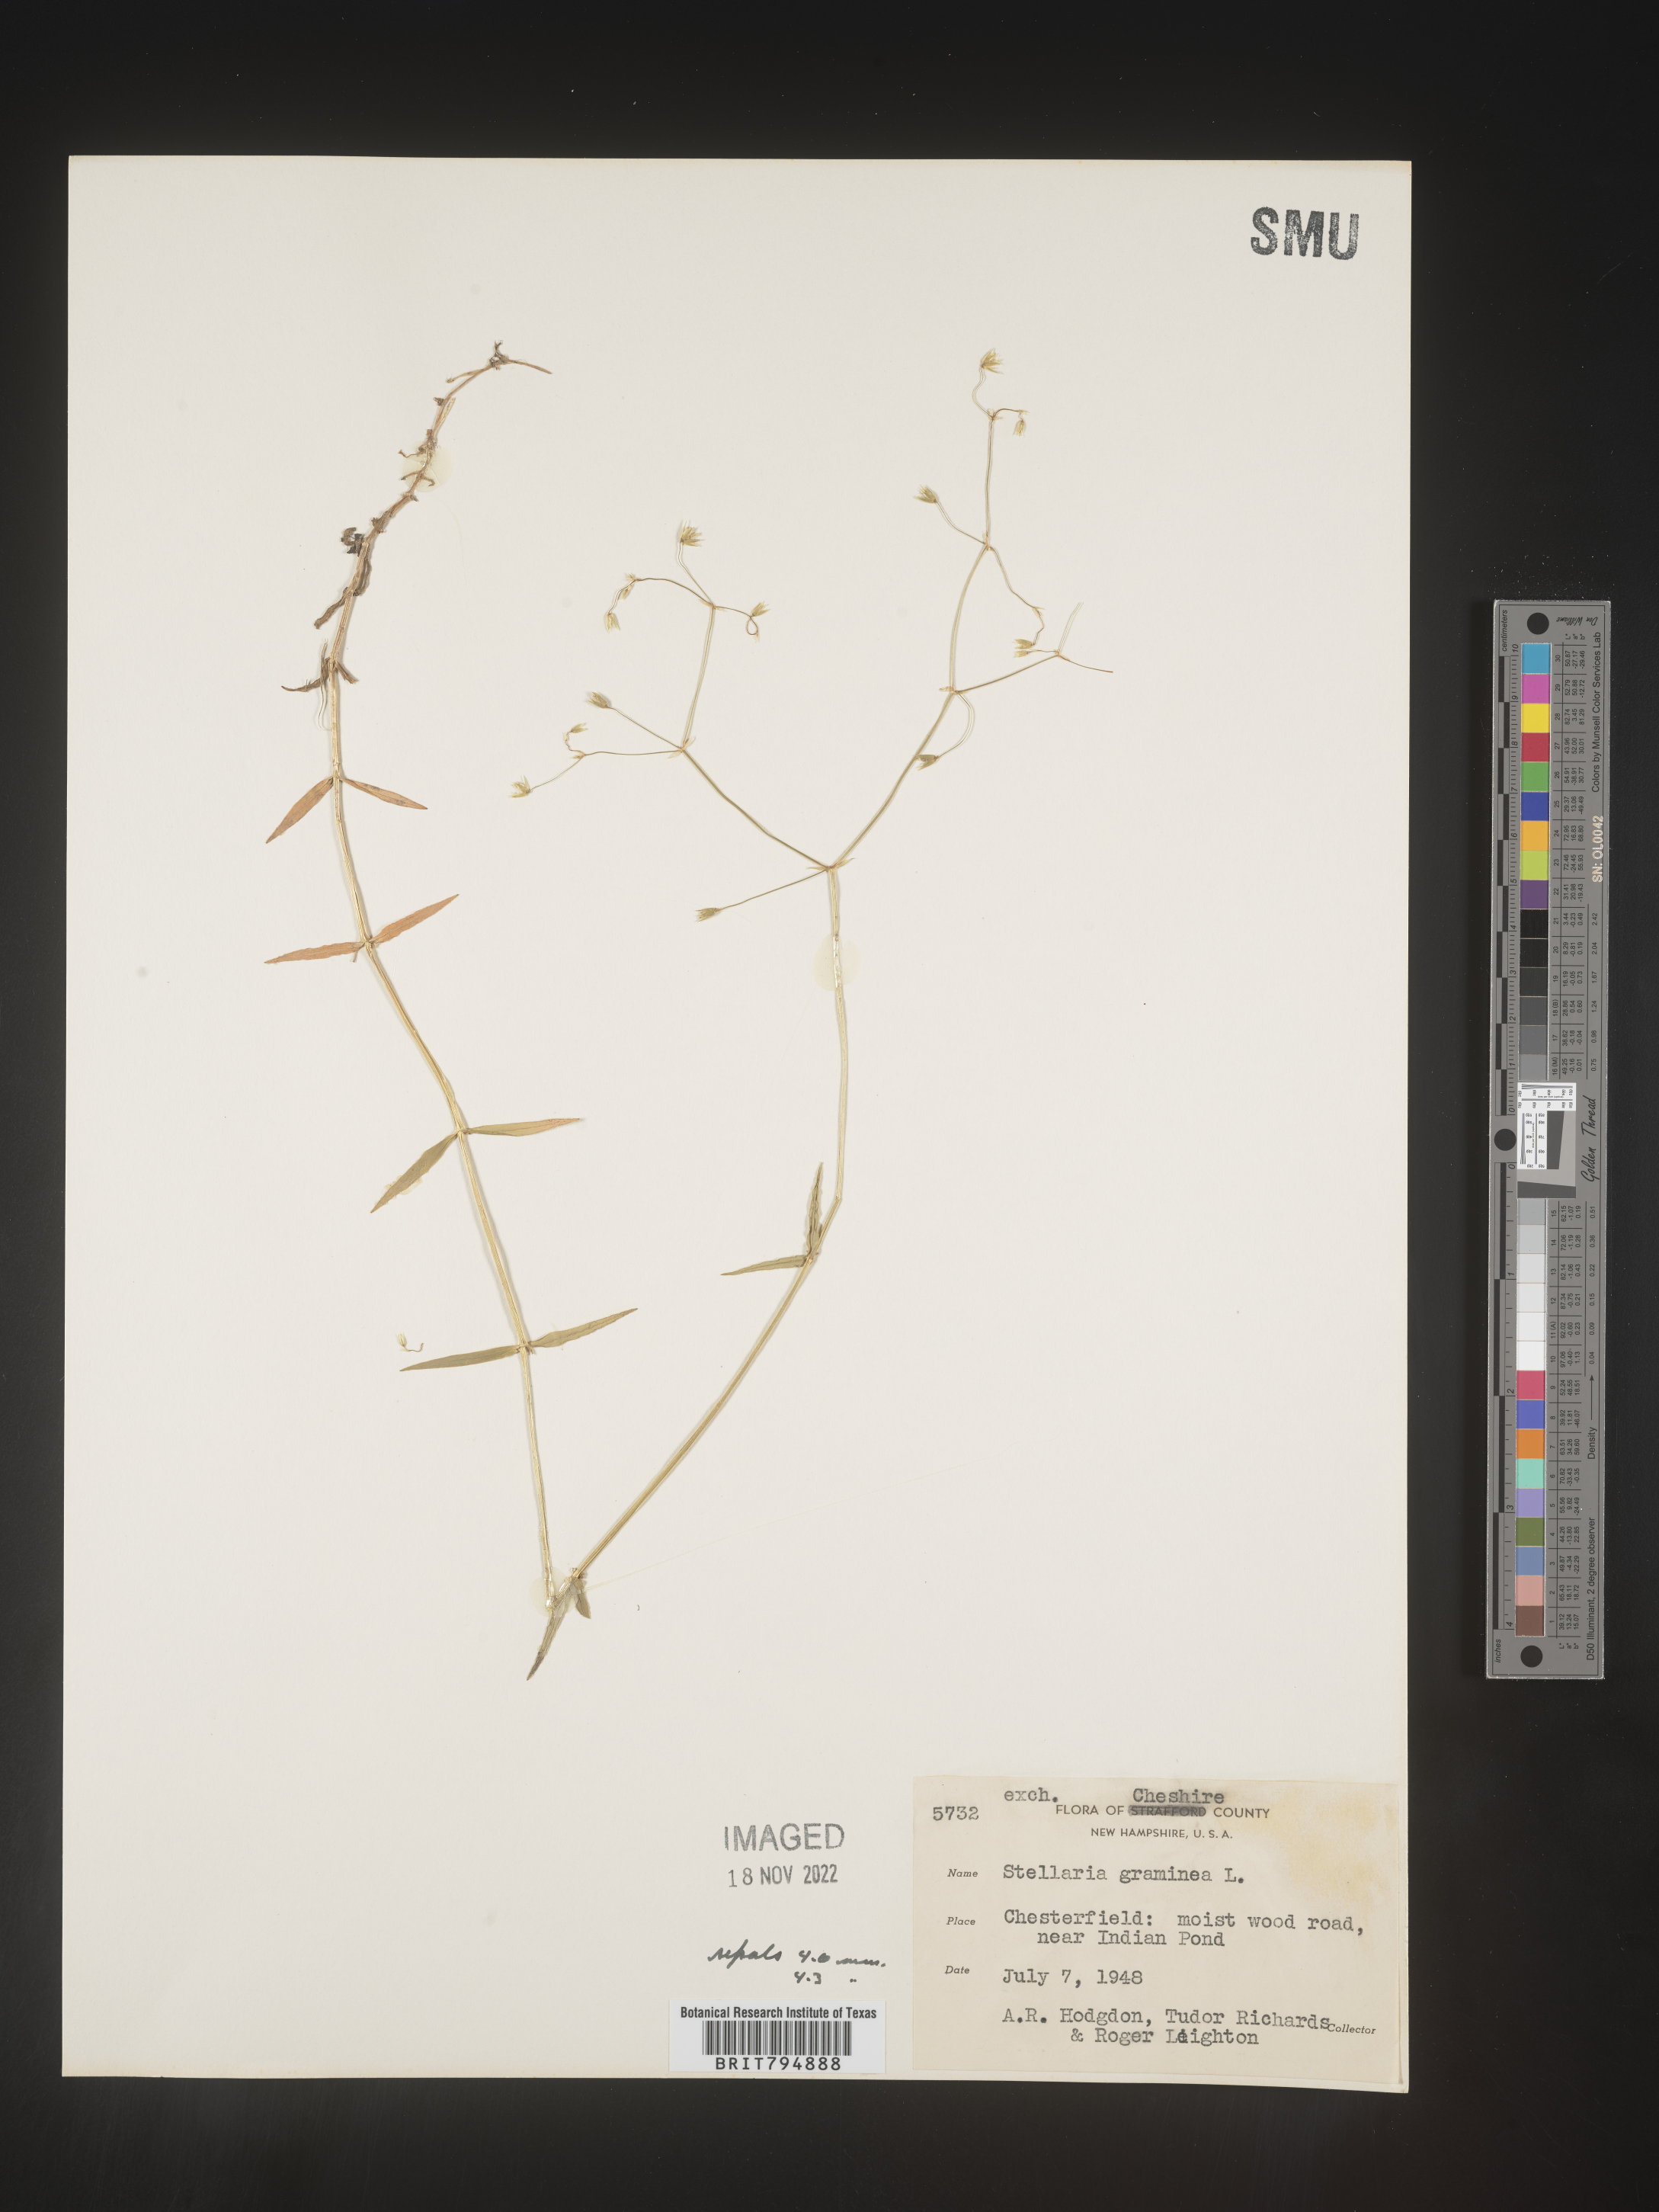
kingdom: Plantae
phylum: Tracheophyta
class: Magnoliopsida
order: Caryophyllales
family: Caryophyllaceae
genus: Stellaria
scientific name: Stellaria graminea
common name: Grass-like starwort
